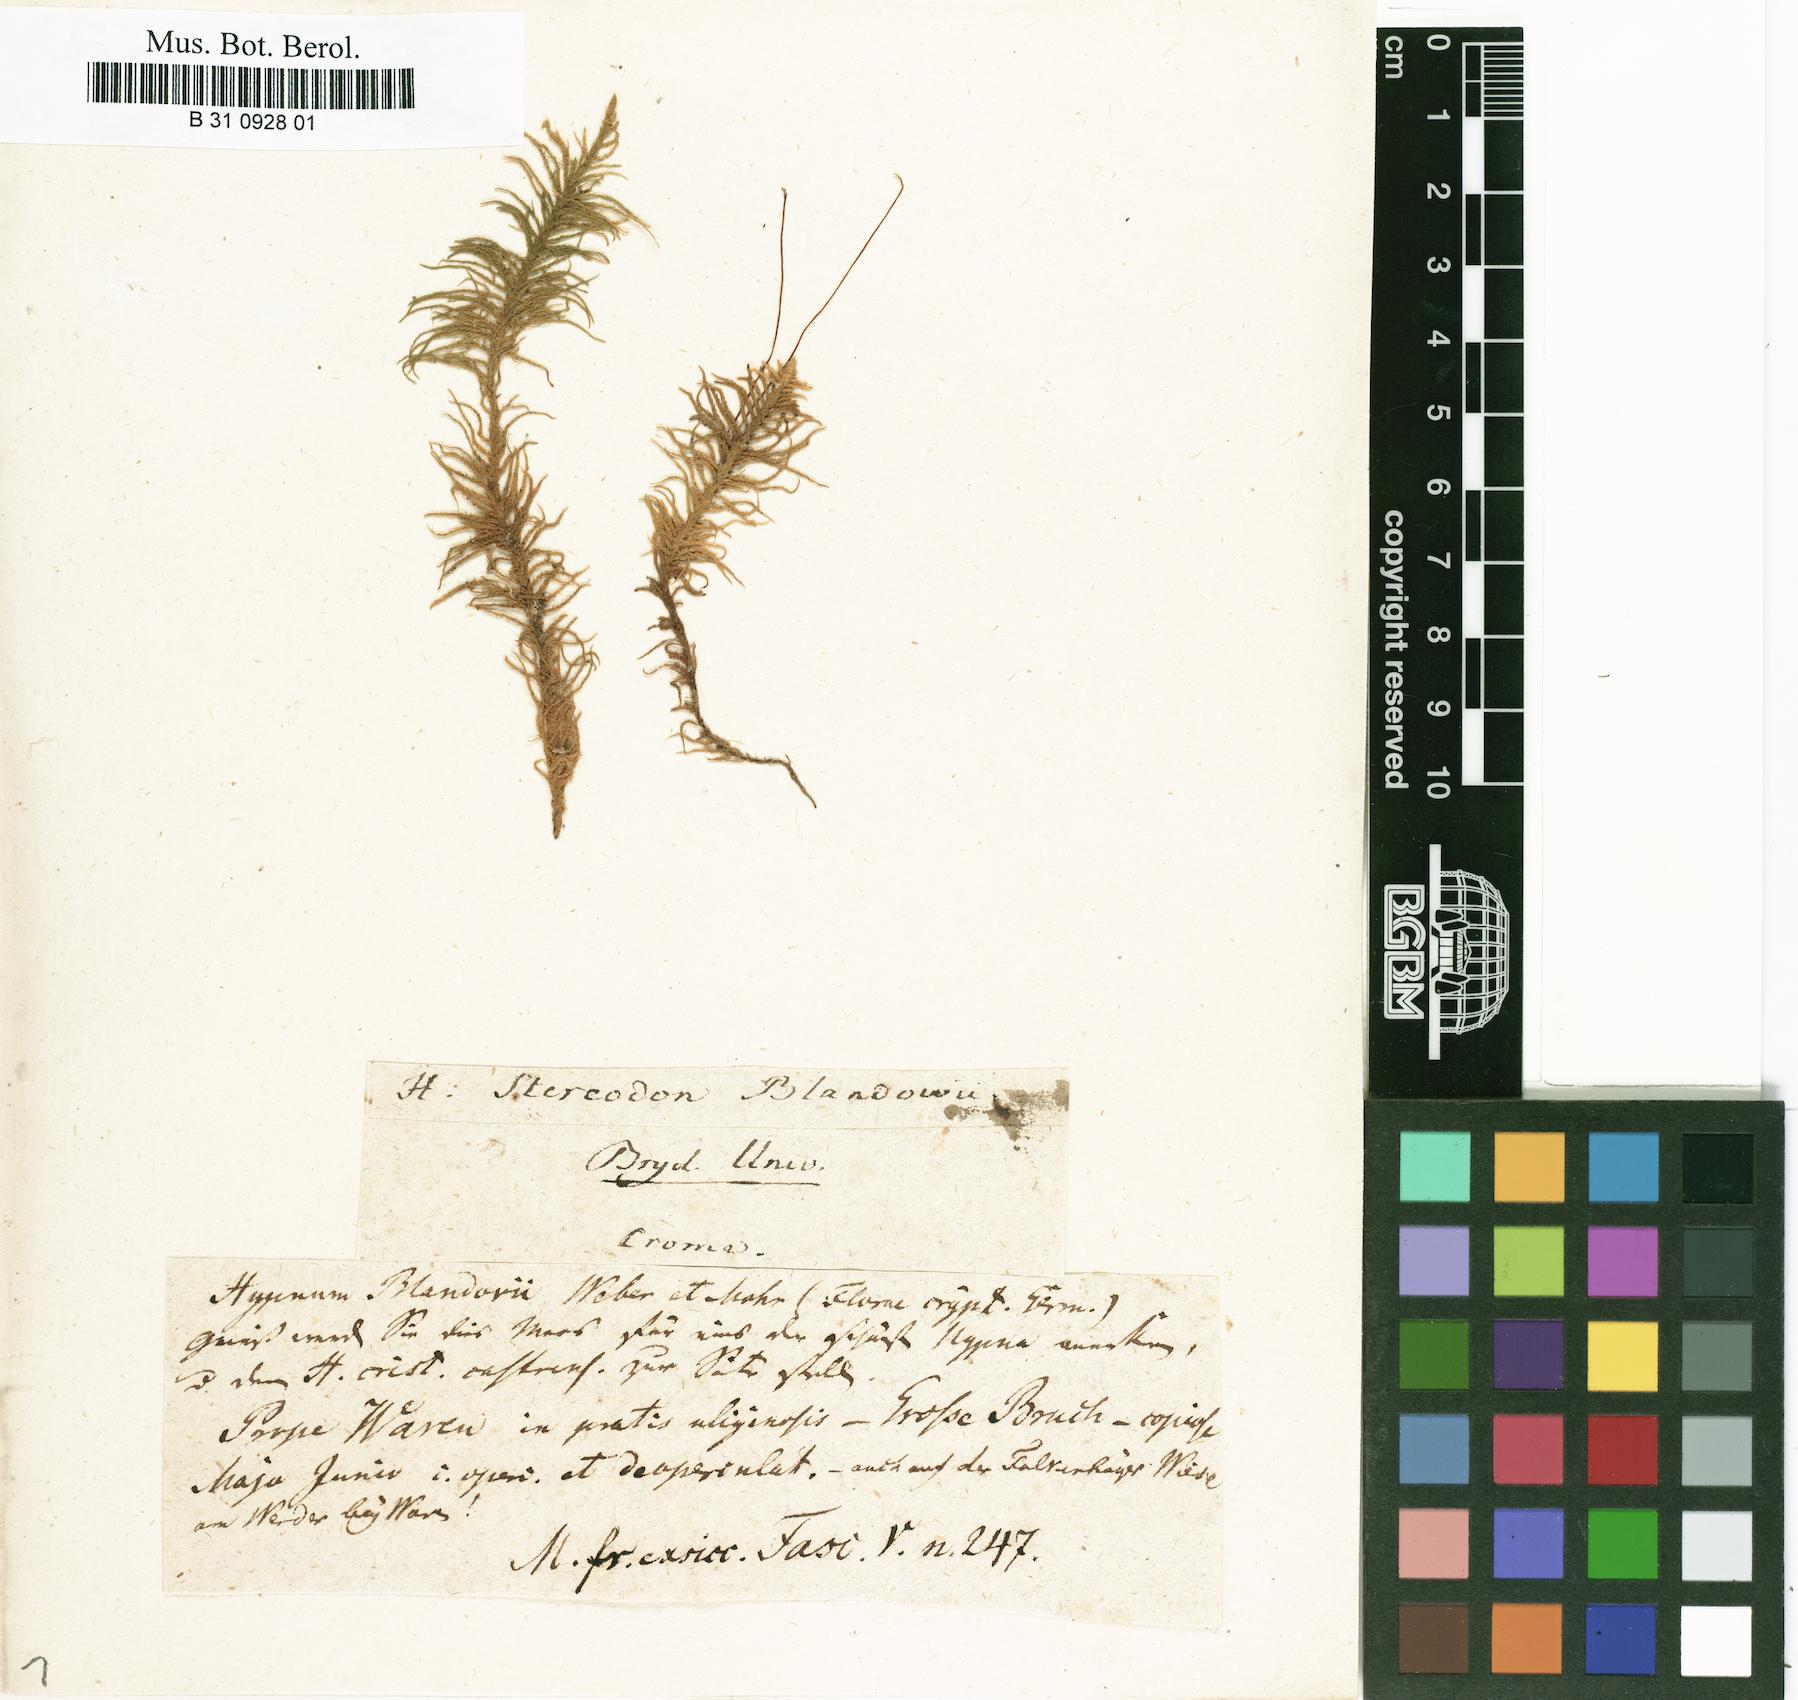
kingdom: Plantae
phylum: Bryophyta
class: Bryopsida
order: Hypnales
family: Helodiaceae
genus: Helodium
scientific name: Helodium blandowii
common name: Blandow's tamarisk-moss
